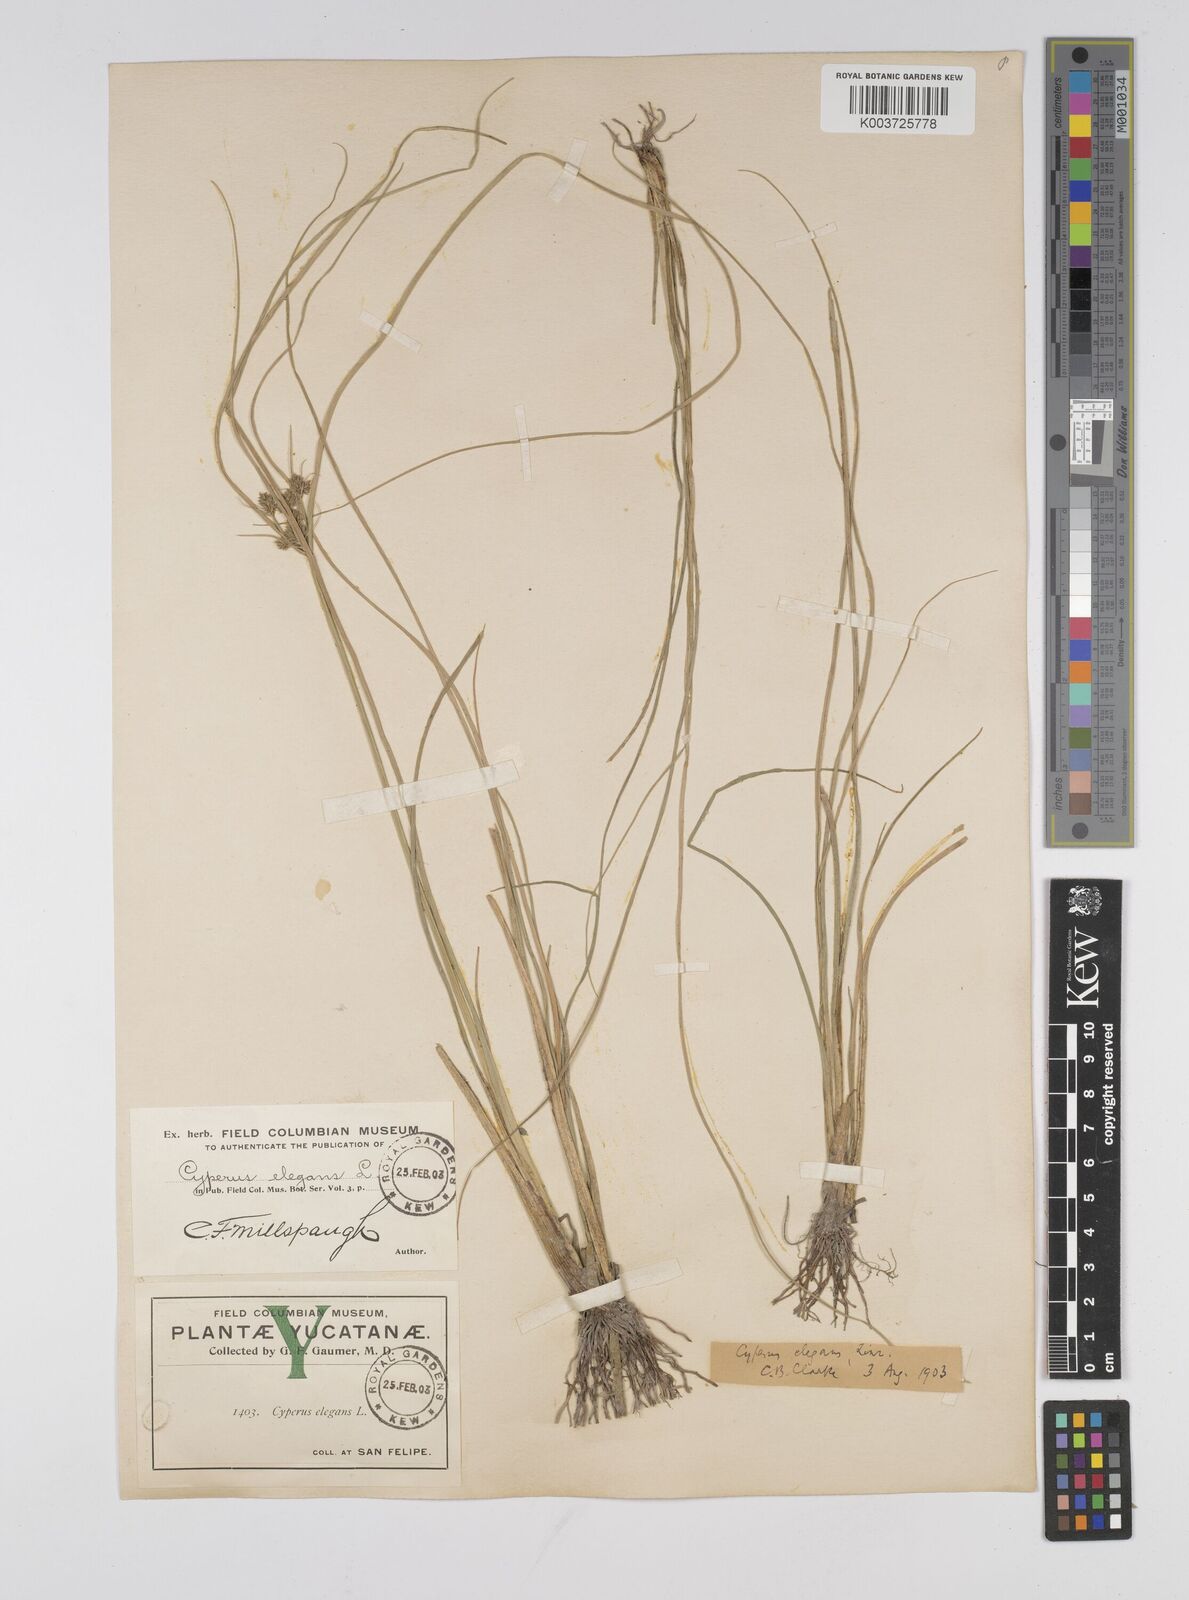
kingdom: Plantae
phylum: Tracheophyta
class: Liliopsida
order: Poales
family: Cyperaceae
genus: Cyperus
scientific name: Cyperus elegans
